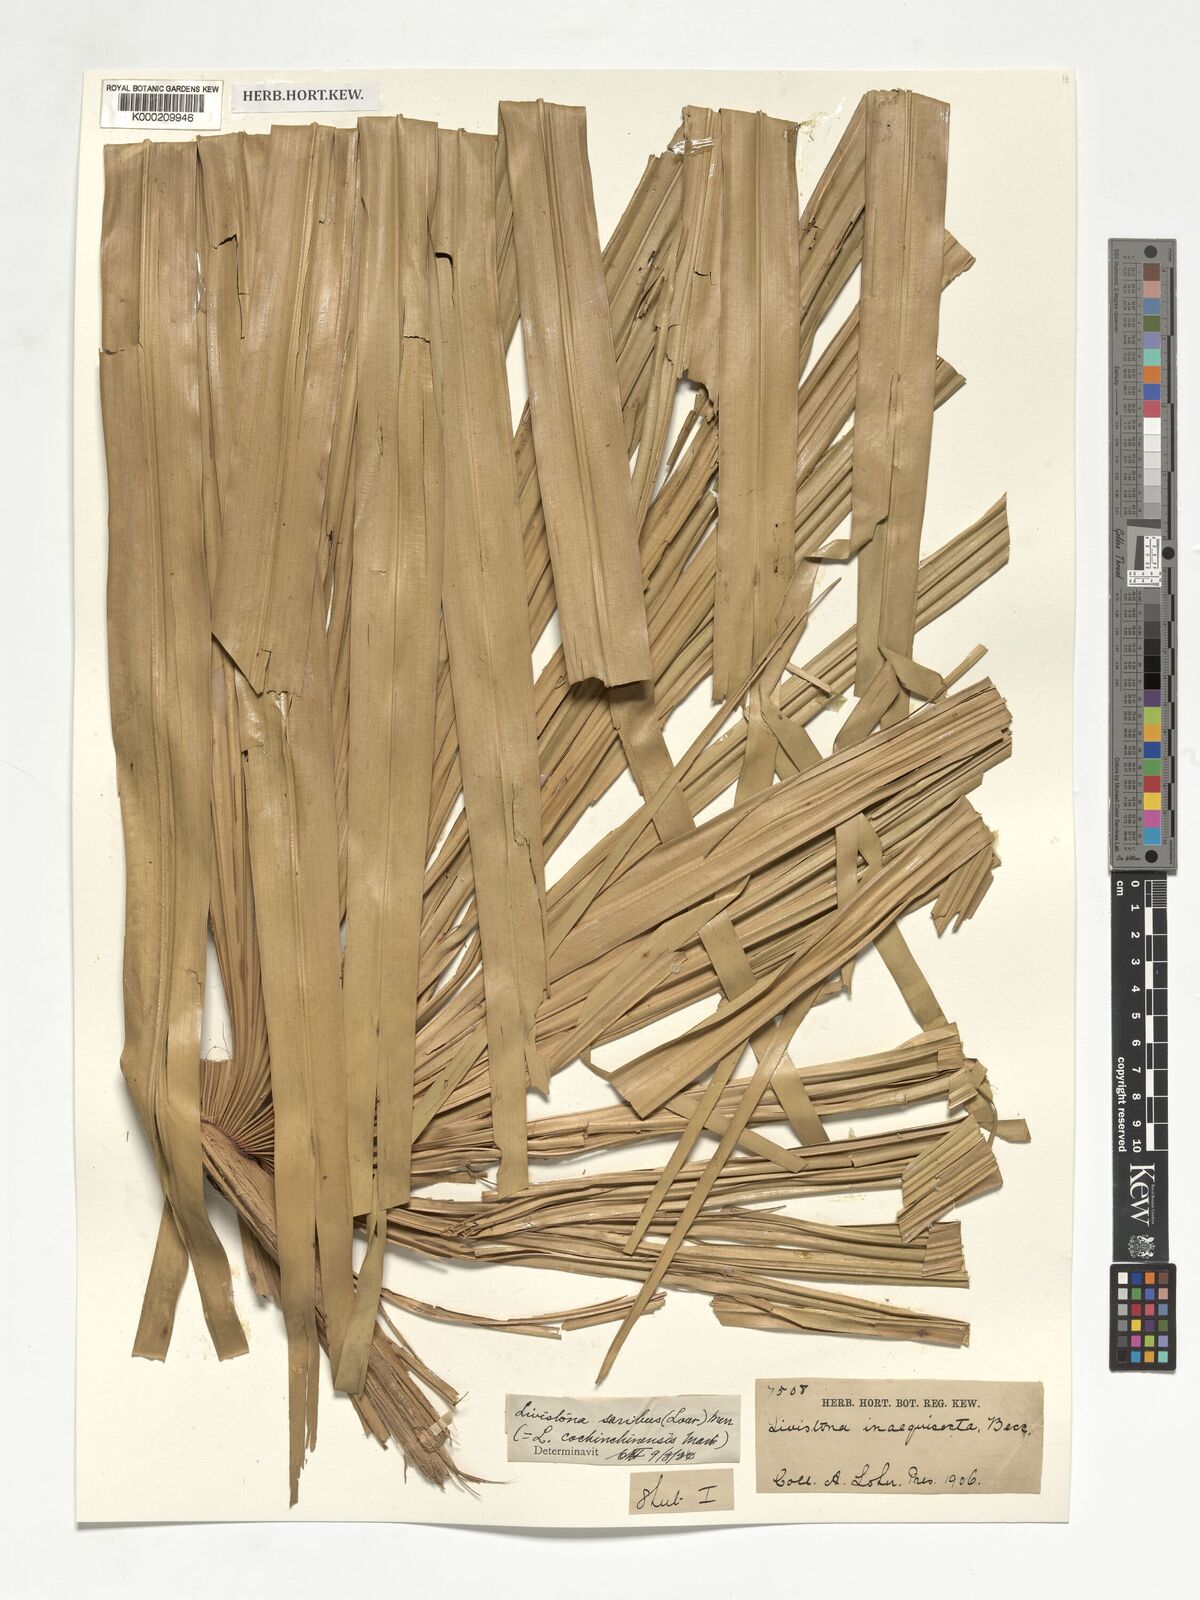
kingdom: Plantae
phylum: Tracheophyta
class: Liliopsida
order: Arecales
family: Arecaceae
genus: Livistona
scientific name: Livistona saribus
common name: Taraw palm
